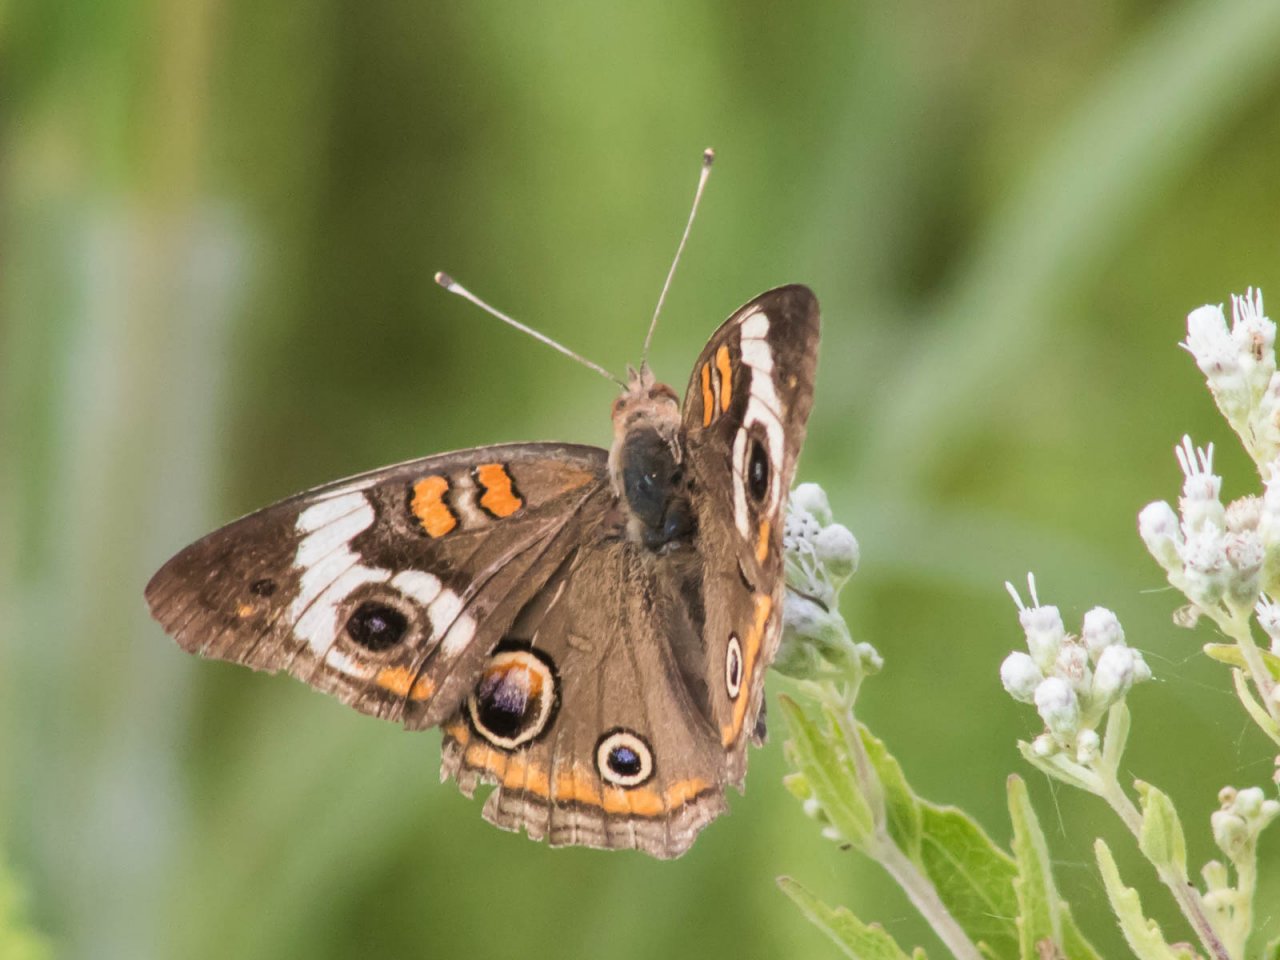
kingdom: Animalia
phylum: Arthropoda
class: Insecta
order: Lepidoptera
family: Nymphalidae
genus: Junonia
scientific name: Junonia coenia
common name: Common Buckeye
